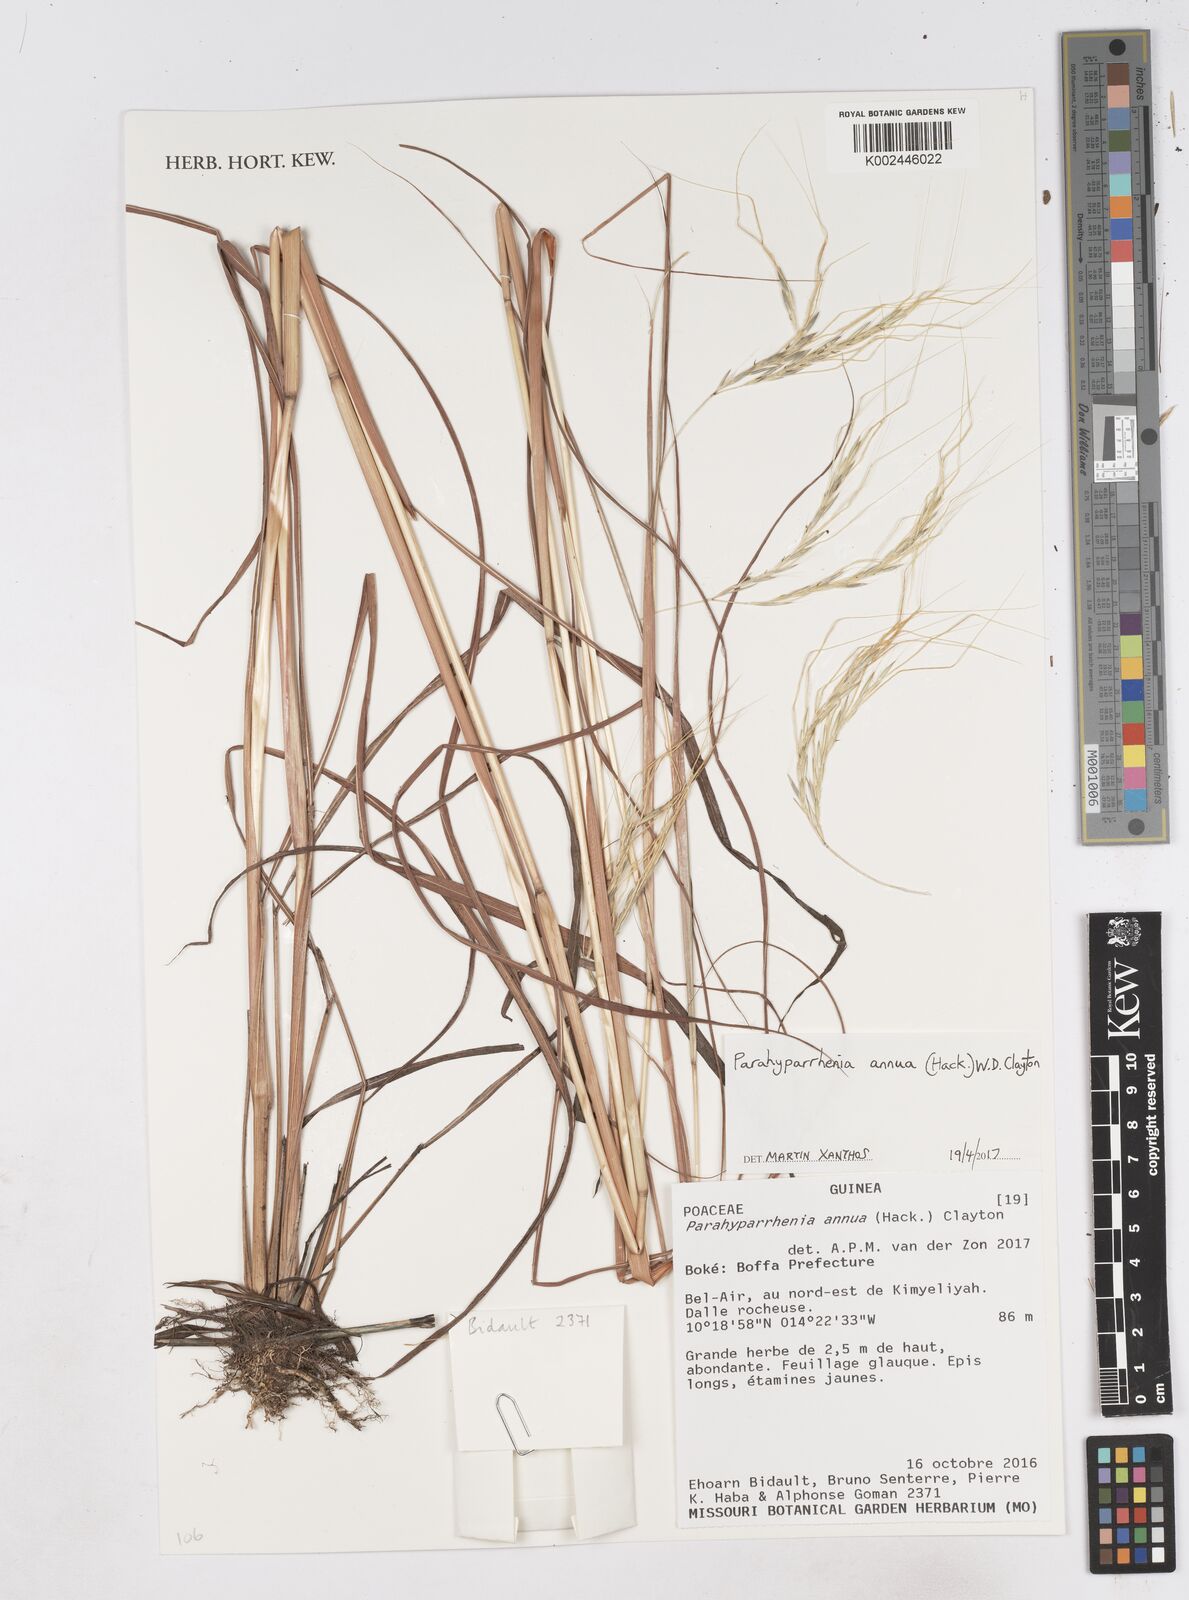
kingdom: Plantae
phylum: Tracheophyta
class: Liliopsida
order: Poales
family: Poaceae
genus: Parahyparrhenia
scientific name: Parahyparrhenia annua
